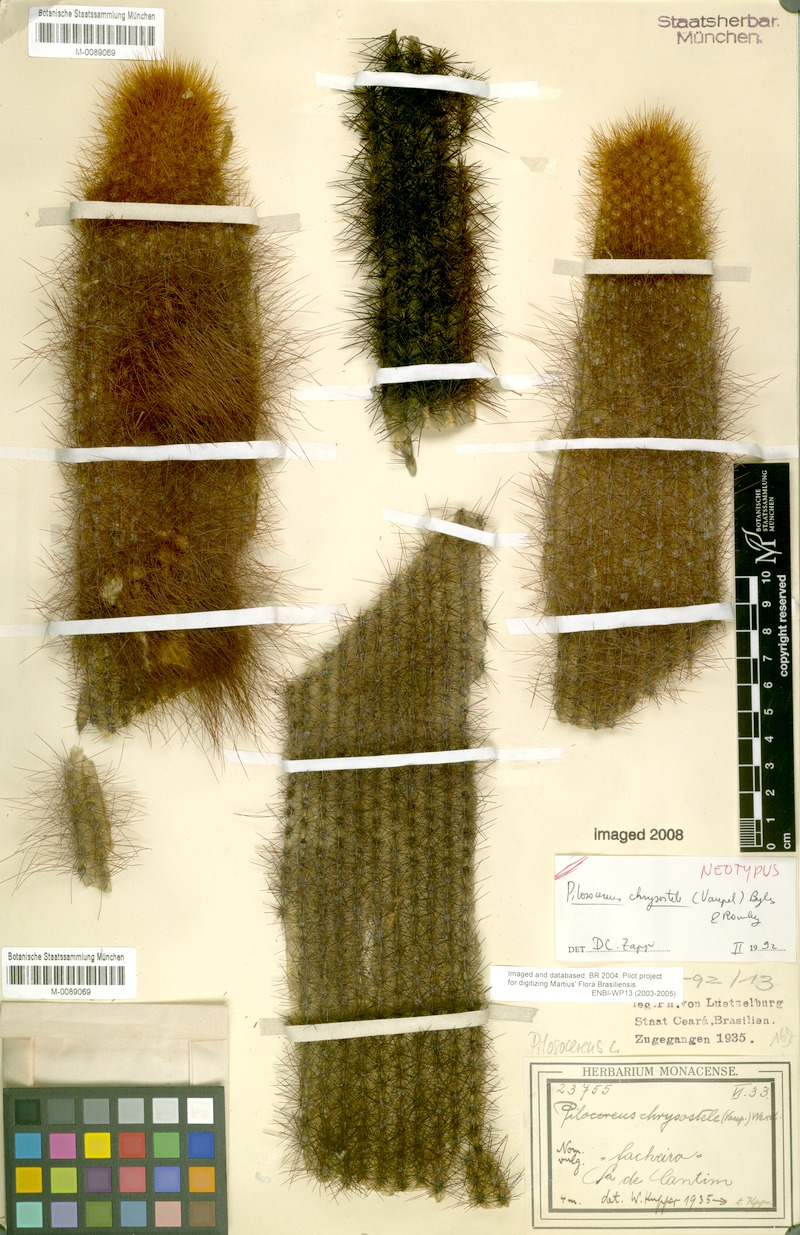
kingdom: Plantae
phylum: Tracheophyta
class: Magnoliopsida
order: Caryophyllales
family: Cactaceae
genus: Pilosocereus
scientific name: Pilosocereus chrysostele
